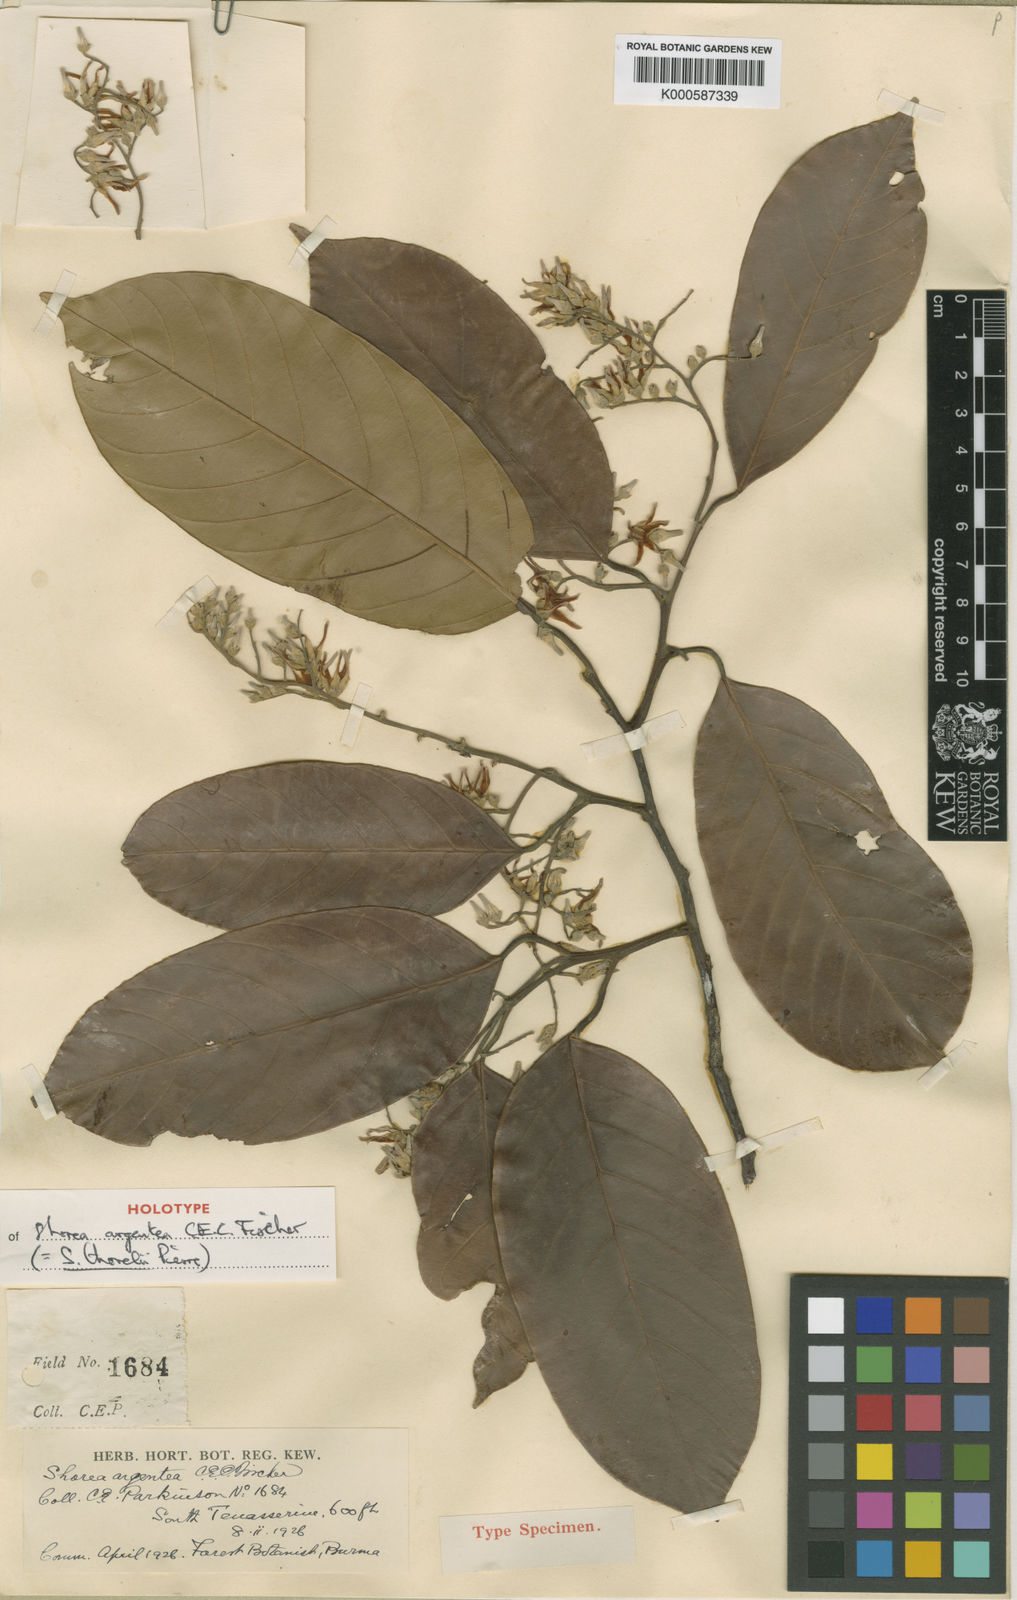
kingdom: Plantae
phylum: Tracheophyta
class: Magnoliopsida
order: Malvales
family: Dipterocarpaceae
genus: Shorea
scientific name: Shorea thorelii
